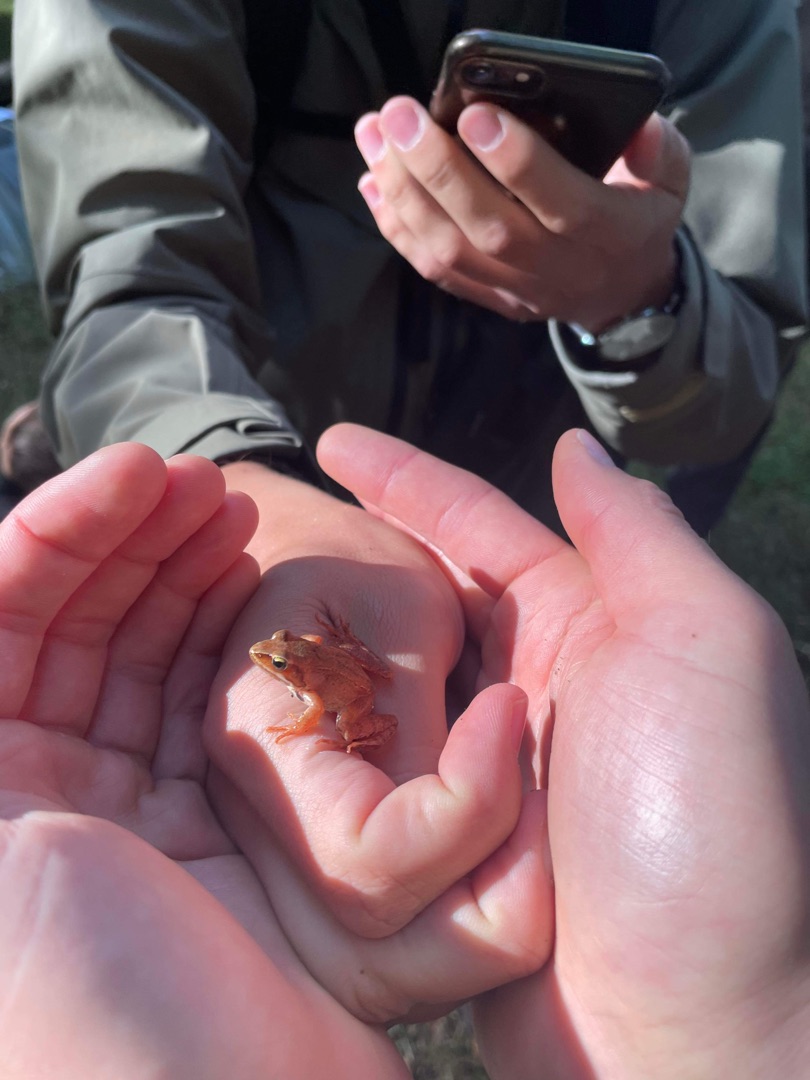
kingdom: Animalia
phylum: Chordata
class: Amphibia
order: Anura
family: Ranidae
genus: Rana
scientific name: Rana dalmatina
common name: Springfrø
